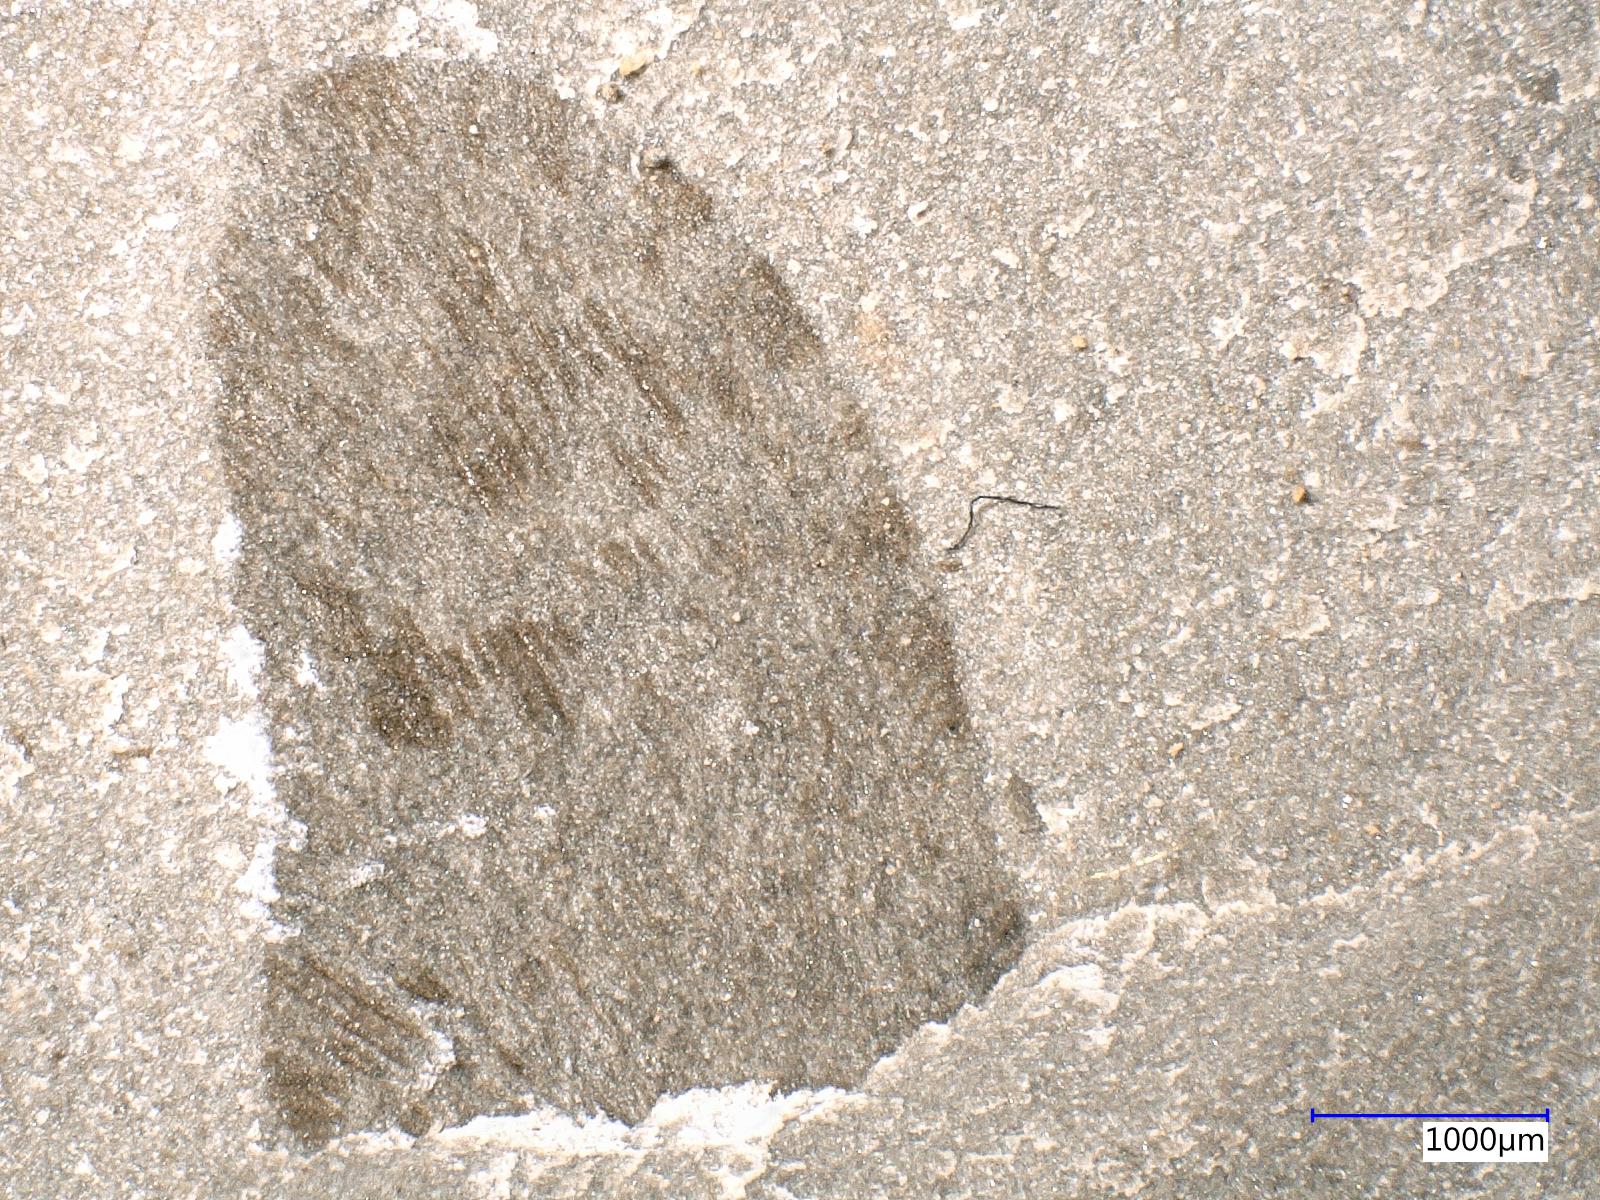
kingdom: Animalia
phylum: Arthropoda
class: Insecta
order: Neuroptera
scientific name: Neuroptera
